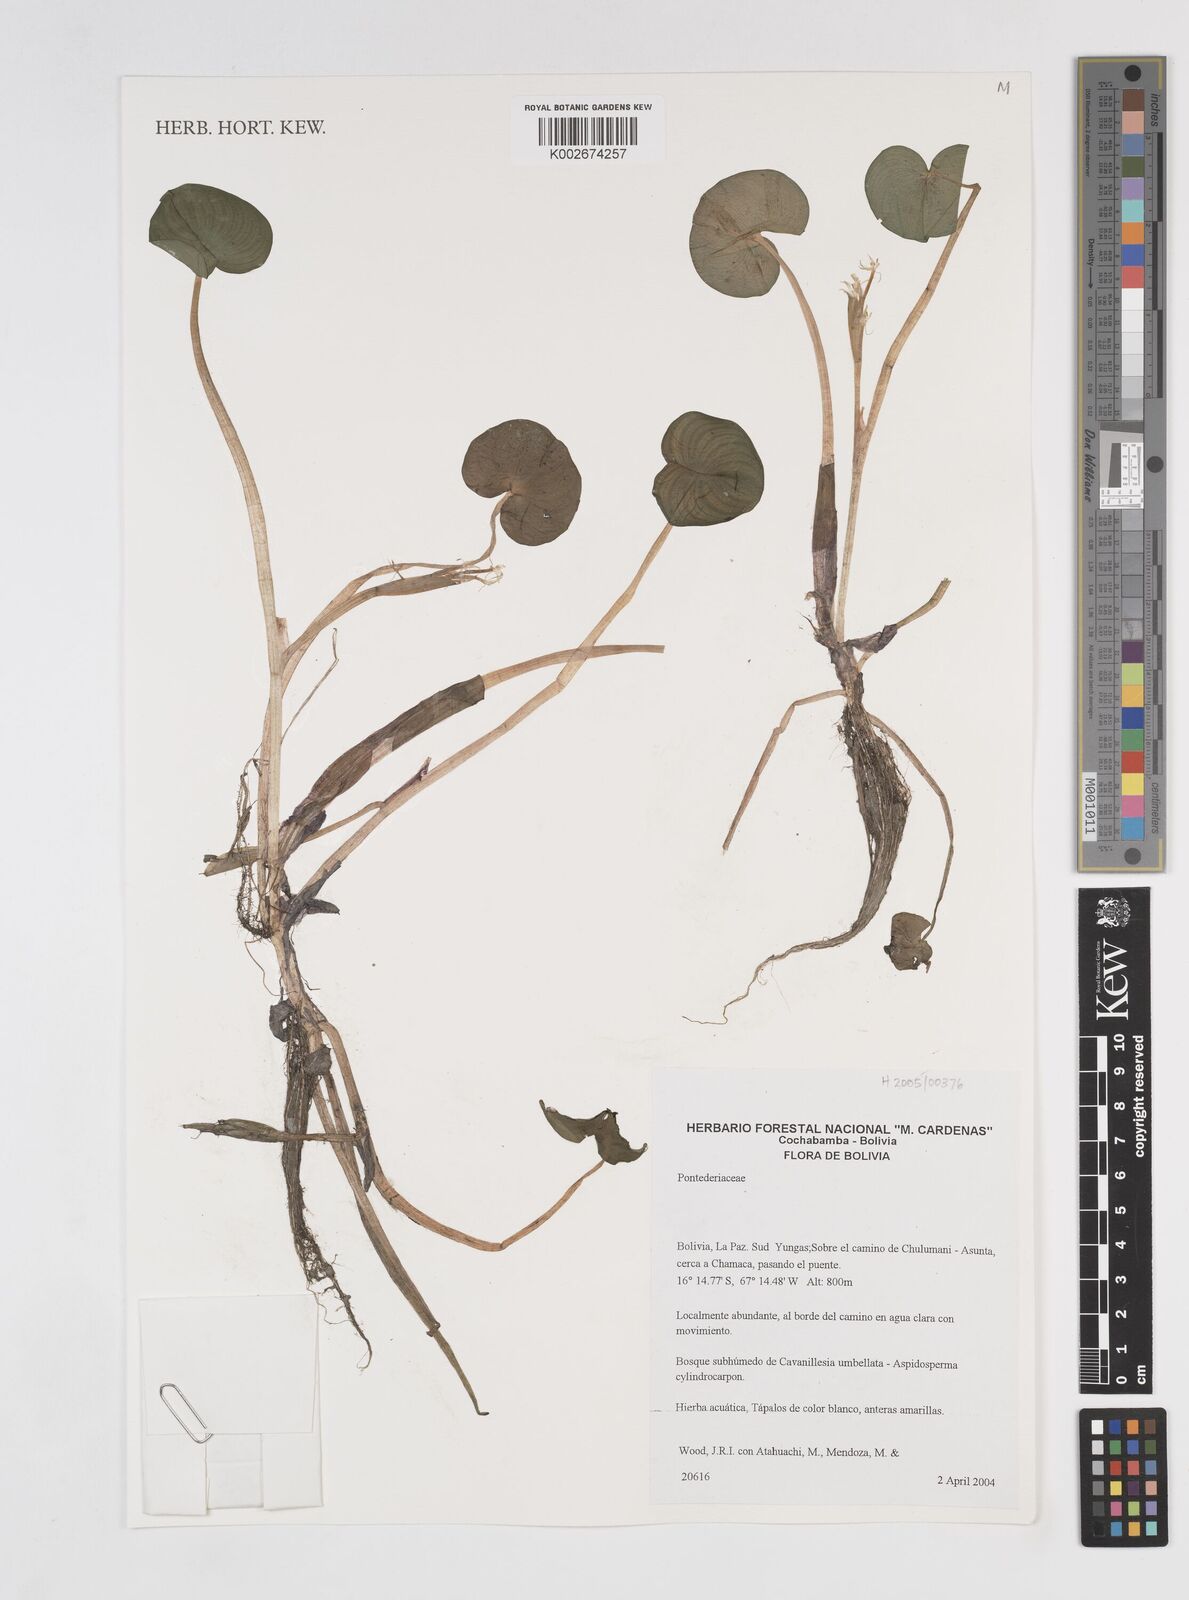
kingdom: Plantae
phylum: Tracheophyta
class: Liliopsida
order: Commelinales
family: Pontederiaceae
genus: Pontederia
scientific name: Pontederia
